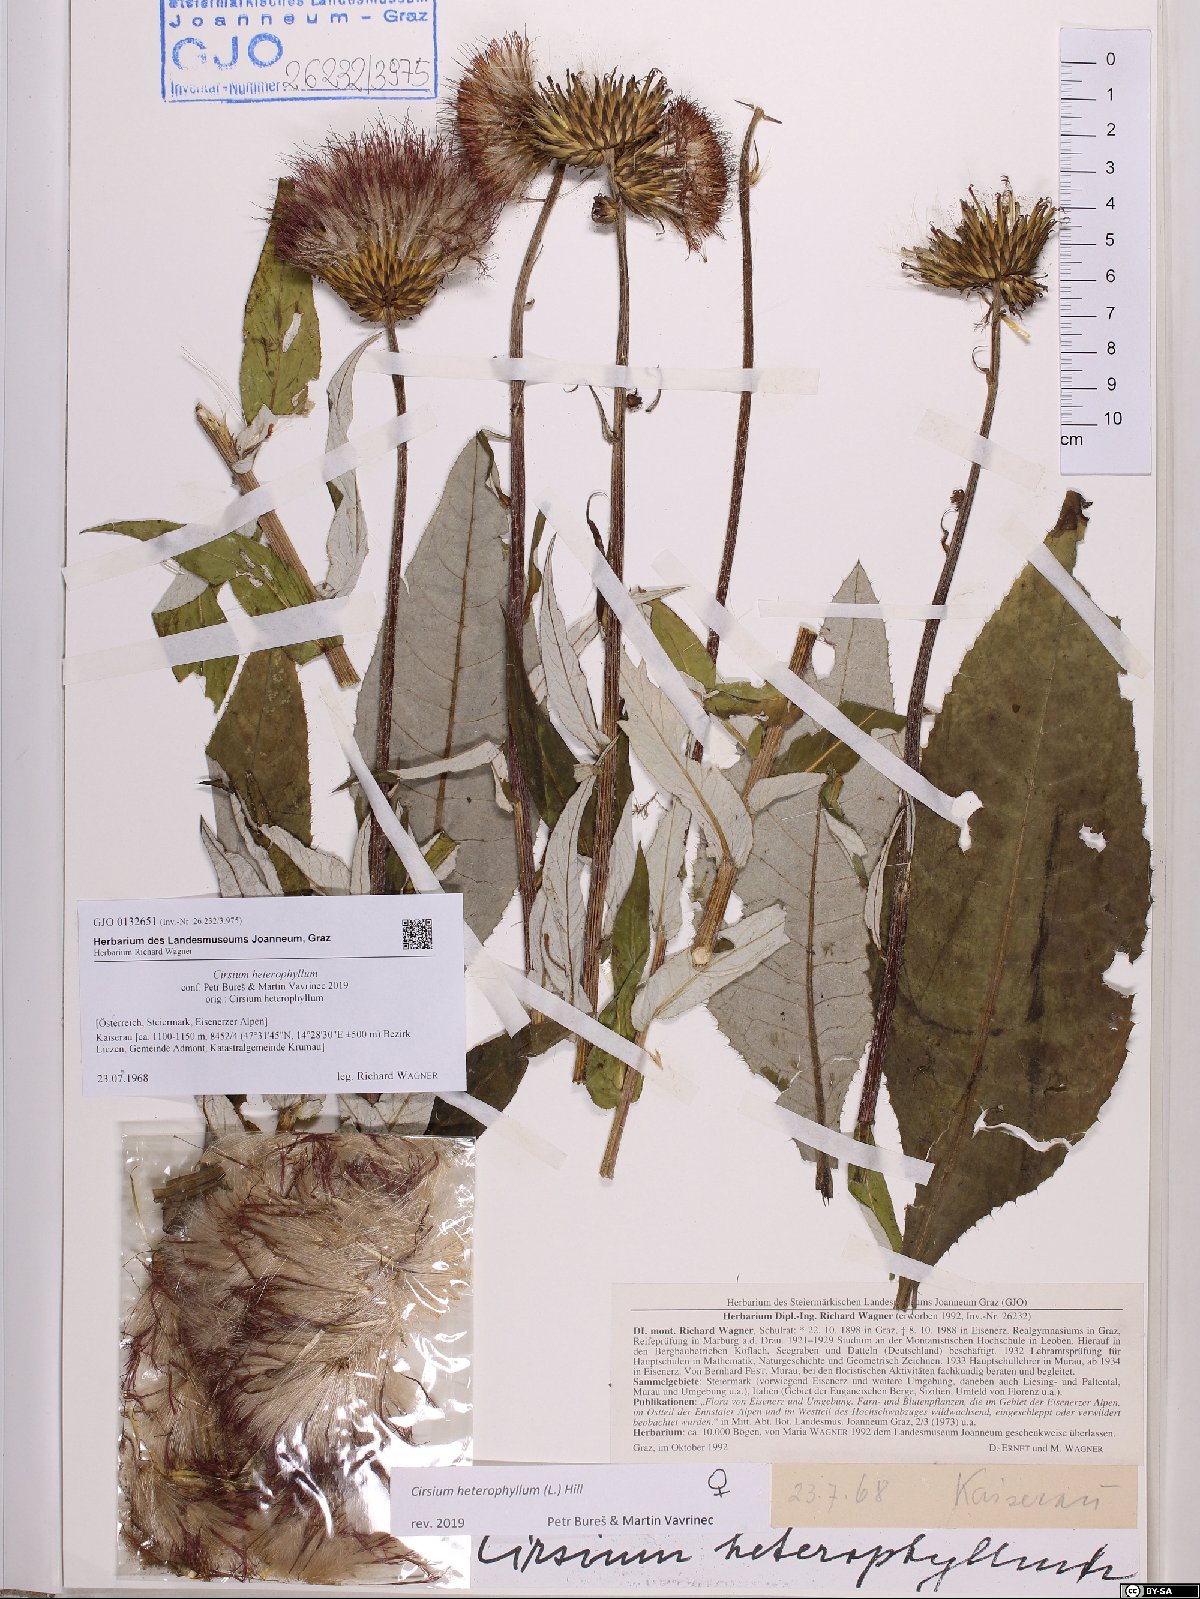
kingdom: Plantae
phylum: Tracheophyta
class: Magnoliopsida
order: Asterales
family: Asteraceae
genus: Cirsium
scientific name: Cirsium heterophyllum
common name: Melancholy thistle
